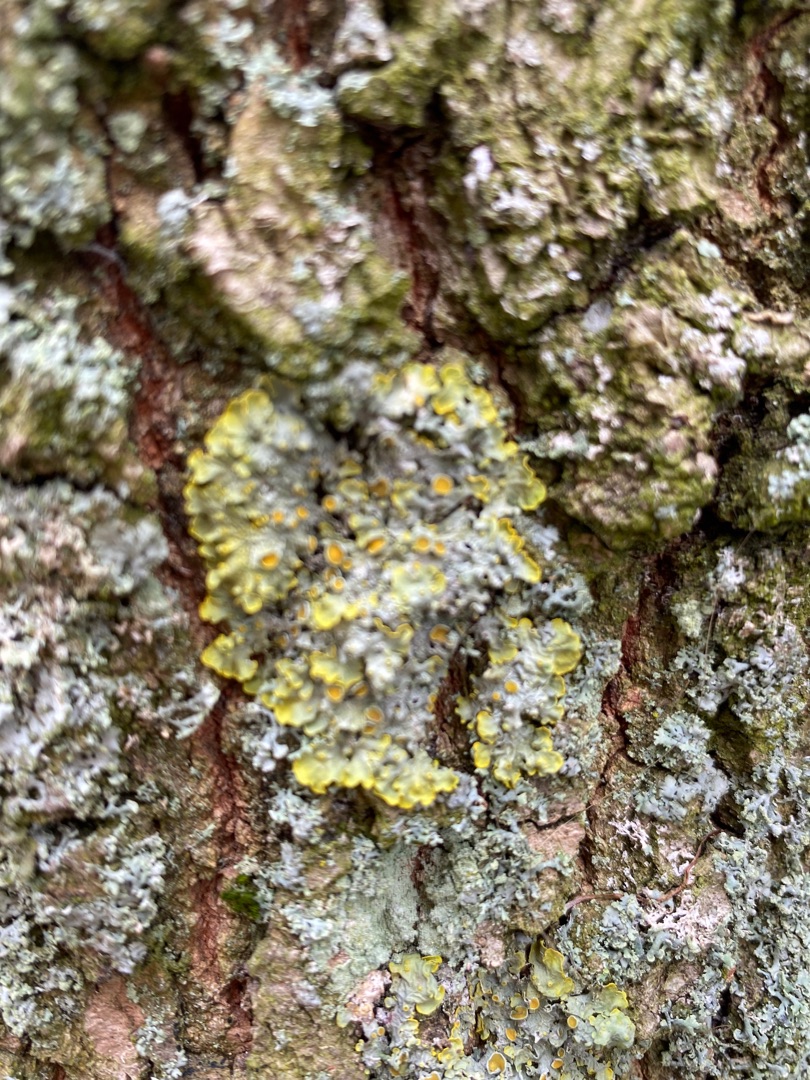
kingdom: Fungi
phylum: Ascomycota
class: Lecanoromycetes
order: Teloschistales
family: Teloschistaceae
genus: Xanthoria
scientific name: Xanthoria parietina
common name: Almindelig væggelav
